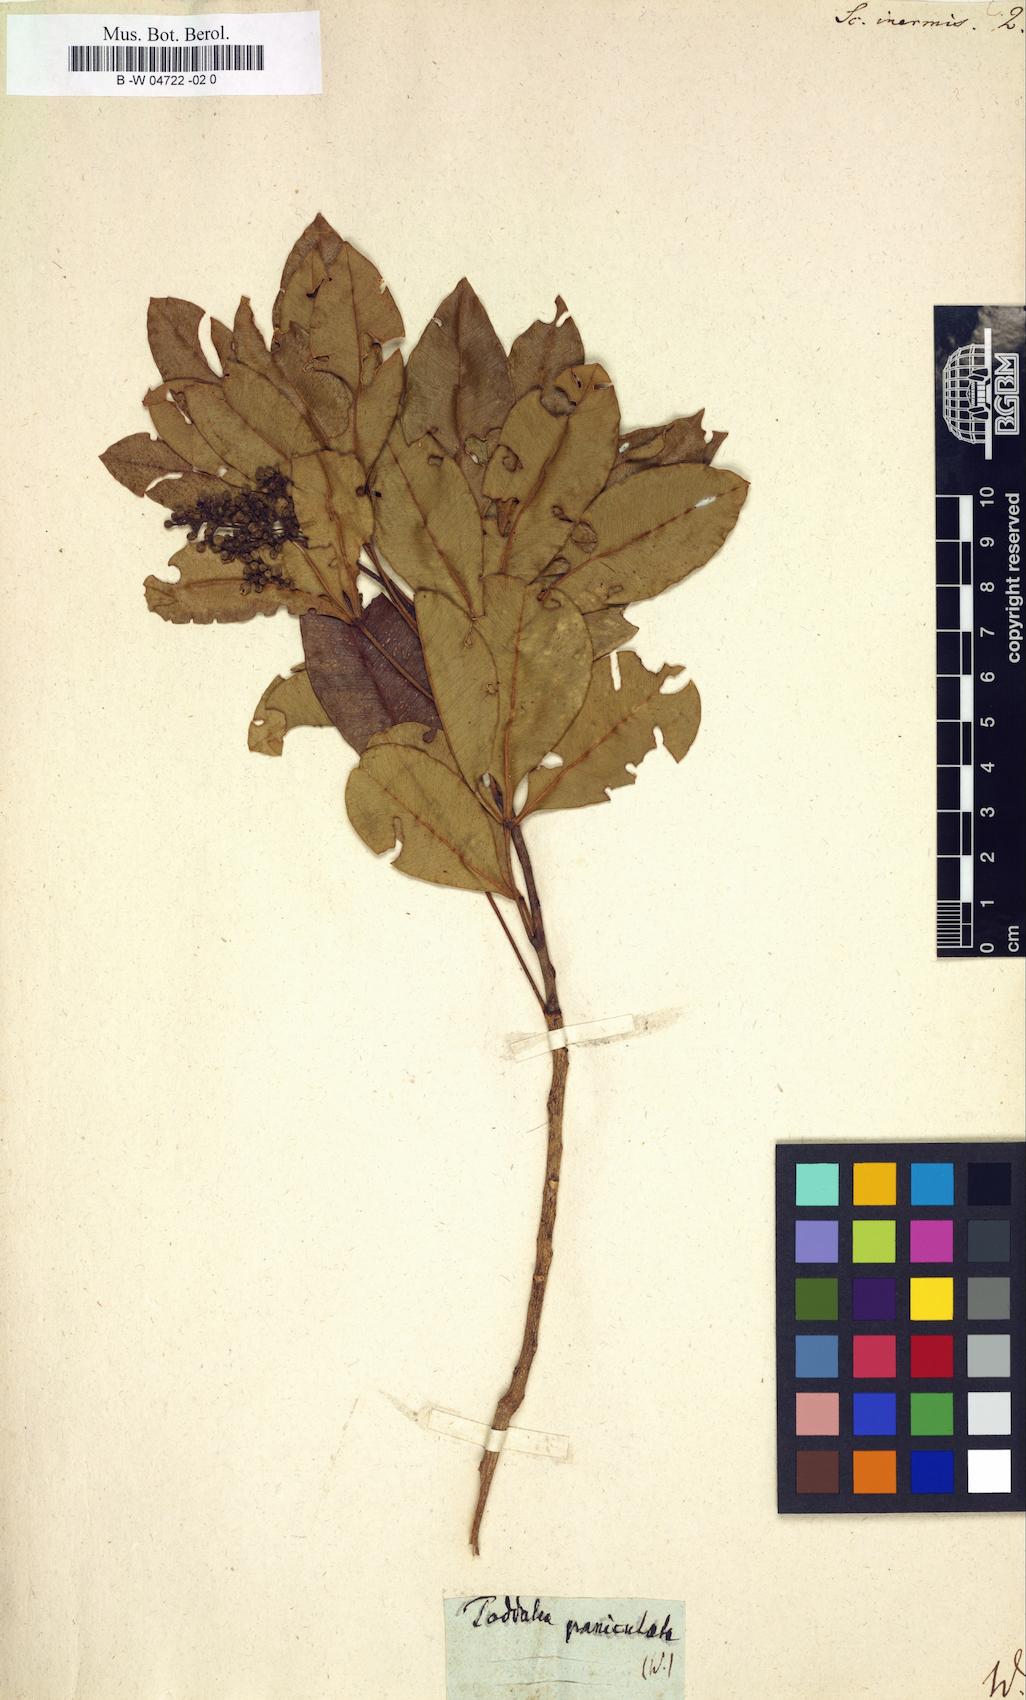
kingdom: Plantae
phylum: Tracheophyta
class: Magnoliopsida
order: Sapindales
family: Rutaceae
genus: Vepris
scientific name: Vepris lanceolata
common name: White ironwood
